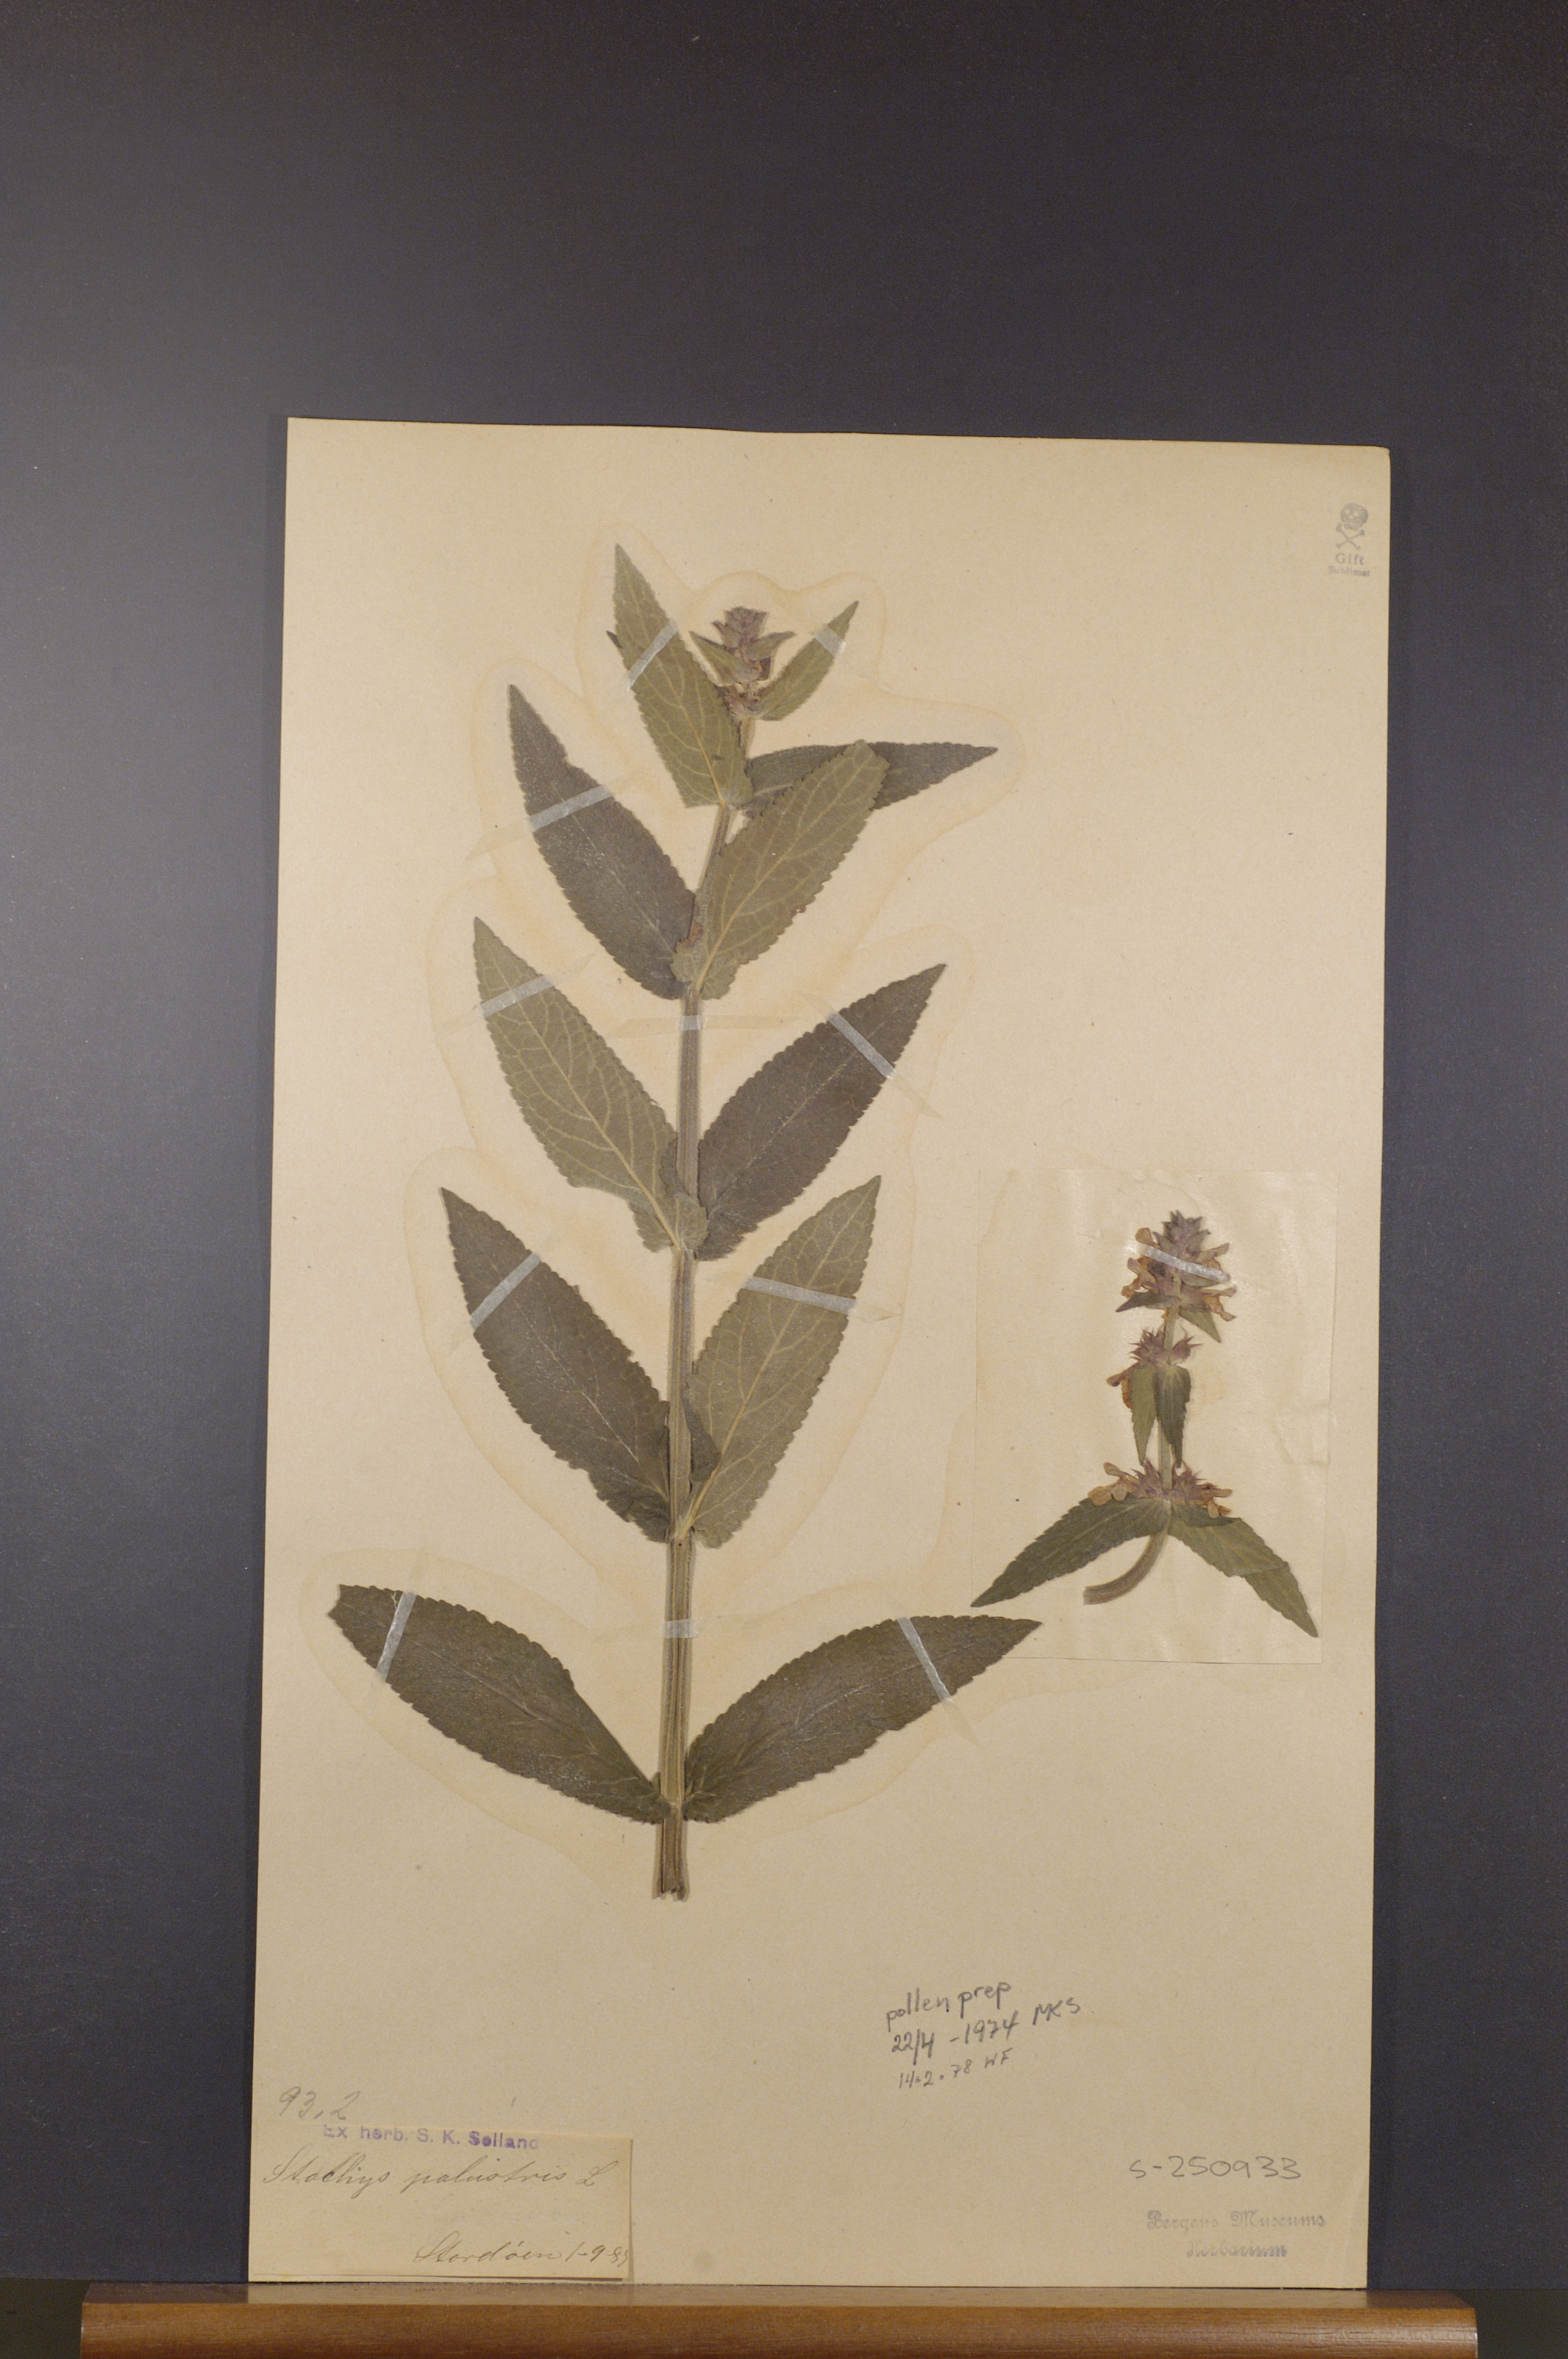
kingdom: Plantae
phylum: Tracheophyta
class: Magnoliopsida
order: Lamiales
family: Lamiaceae
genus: Stachys
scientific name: Stachys palustris
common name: Marsh woundwort
